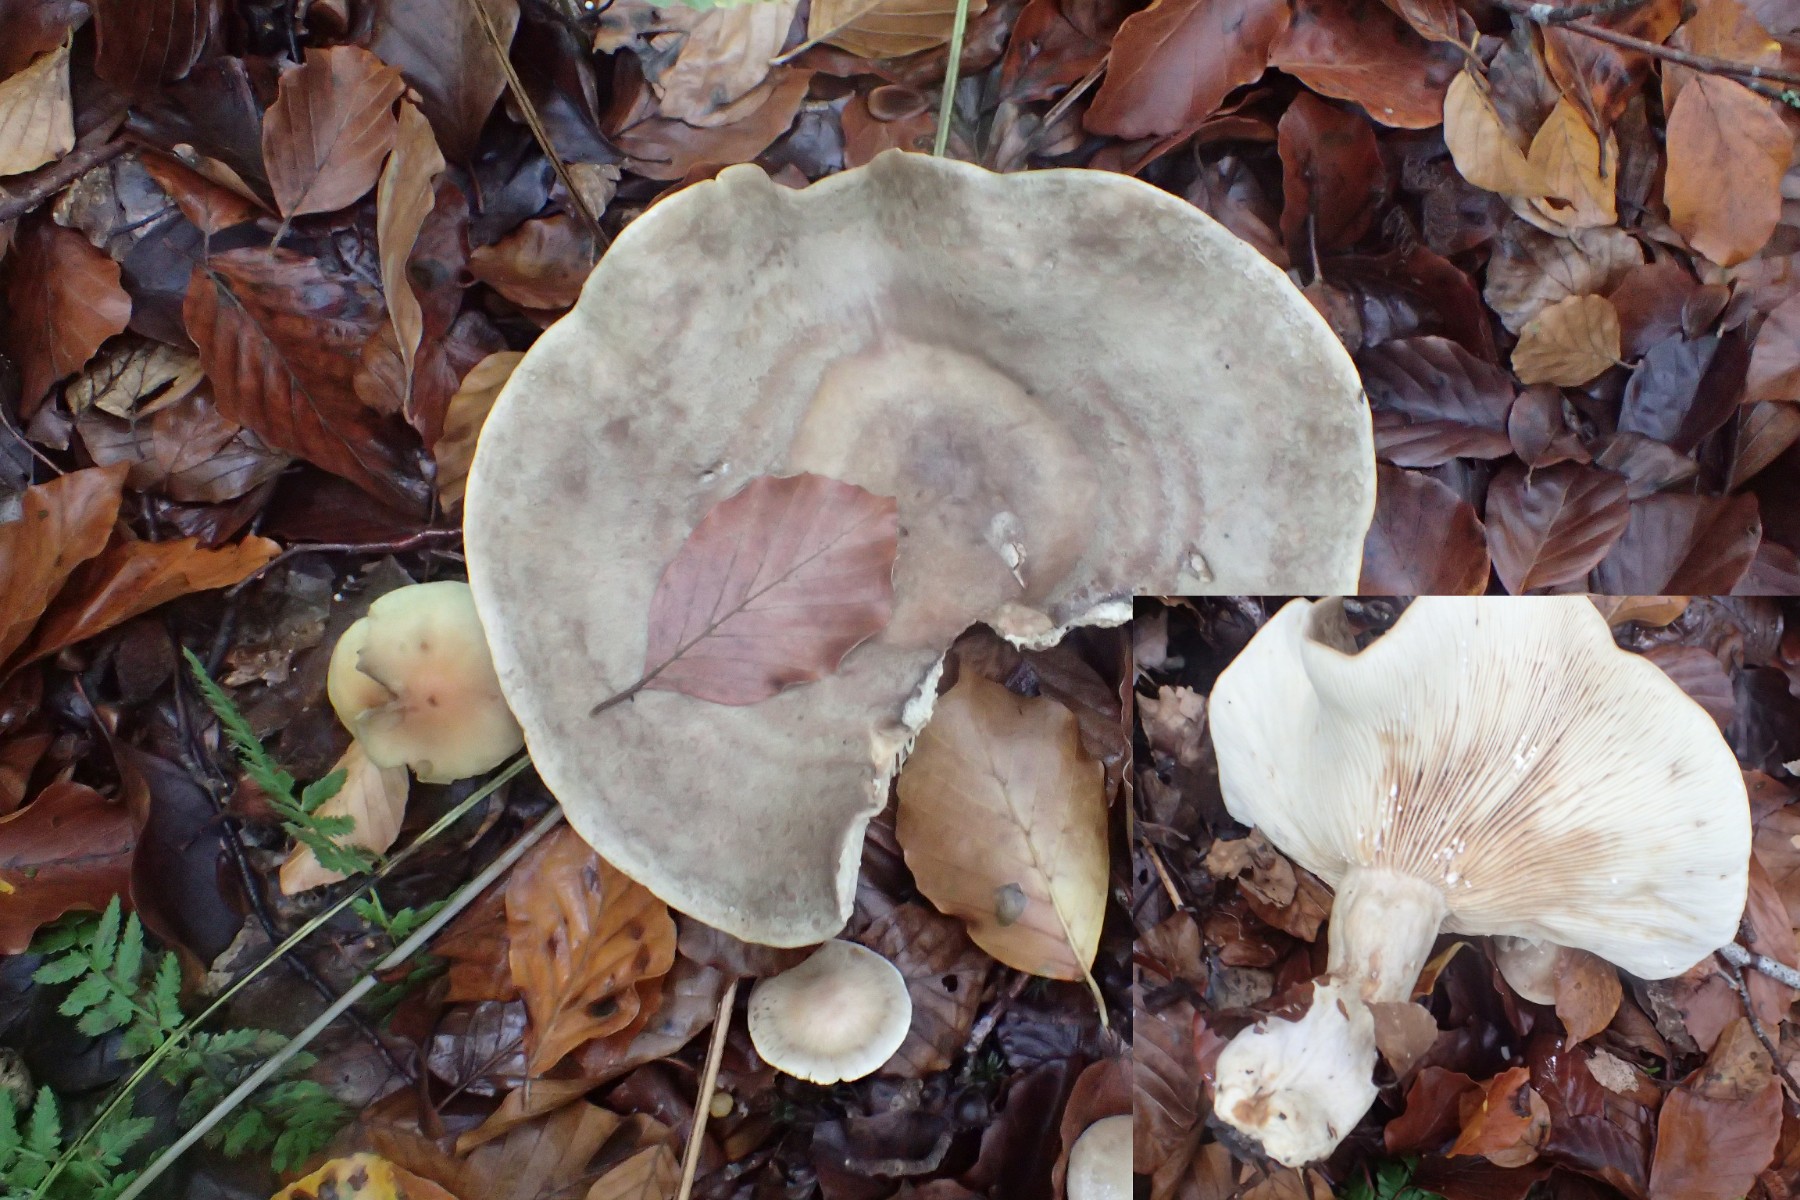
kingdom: Fungi
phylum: Basidiomycota
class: Agaricomycetes
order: Russulales
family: Russulaceae
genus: Lactarius
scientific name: Lactarius fluens
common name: lysrandet mælkehat
